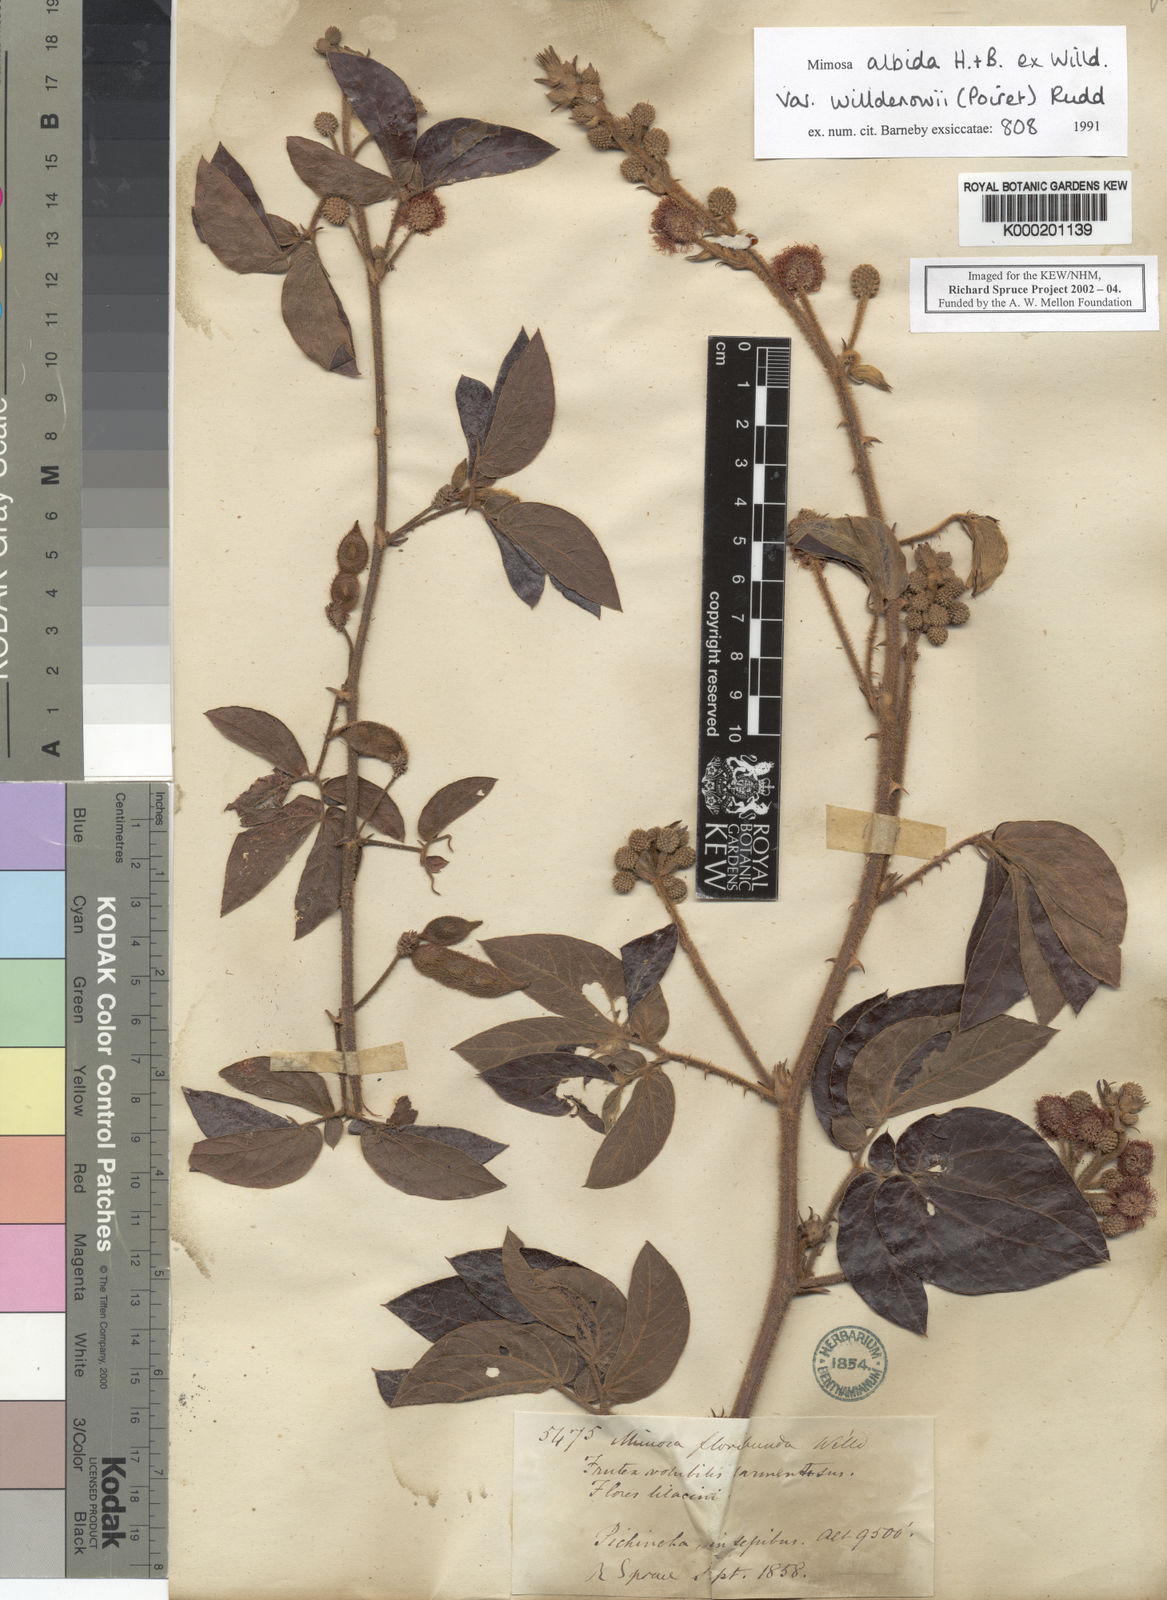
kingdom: Plantae
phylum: Tracheophyta
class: Magnoliopsida
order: Fabales
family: Fabaceae
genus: Mimosa
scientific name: Mimosa albida
